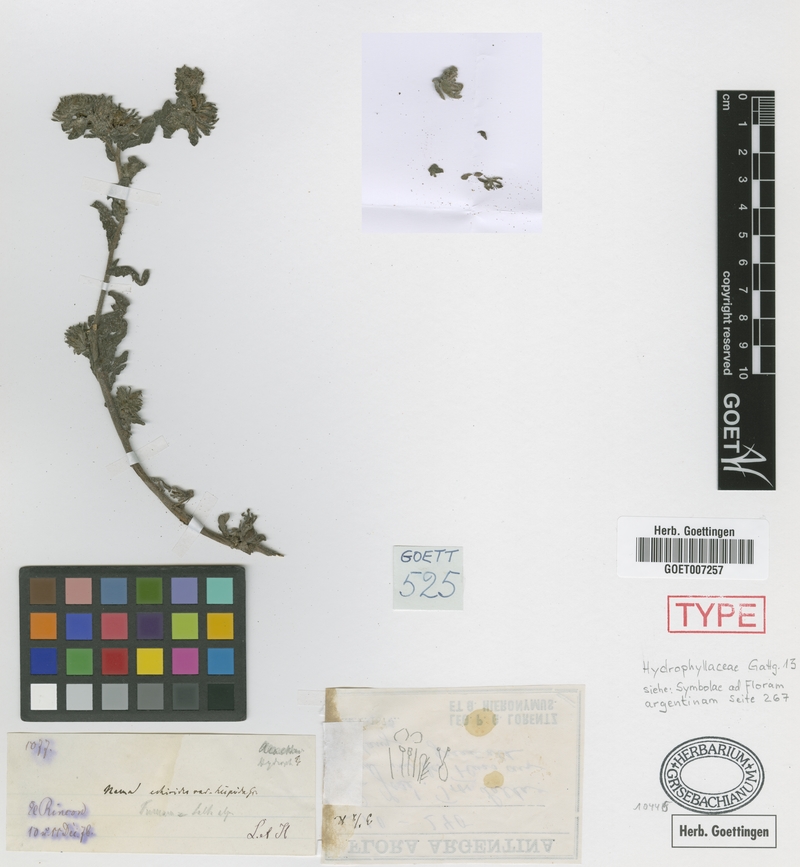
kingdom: Plantae
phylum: Tracheophyta
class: Magnoliopsida
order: Boraginales
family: Namaceae
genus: Nama
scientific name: Nama undulata
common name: Whitewhisker fiddleleaf
